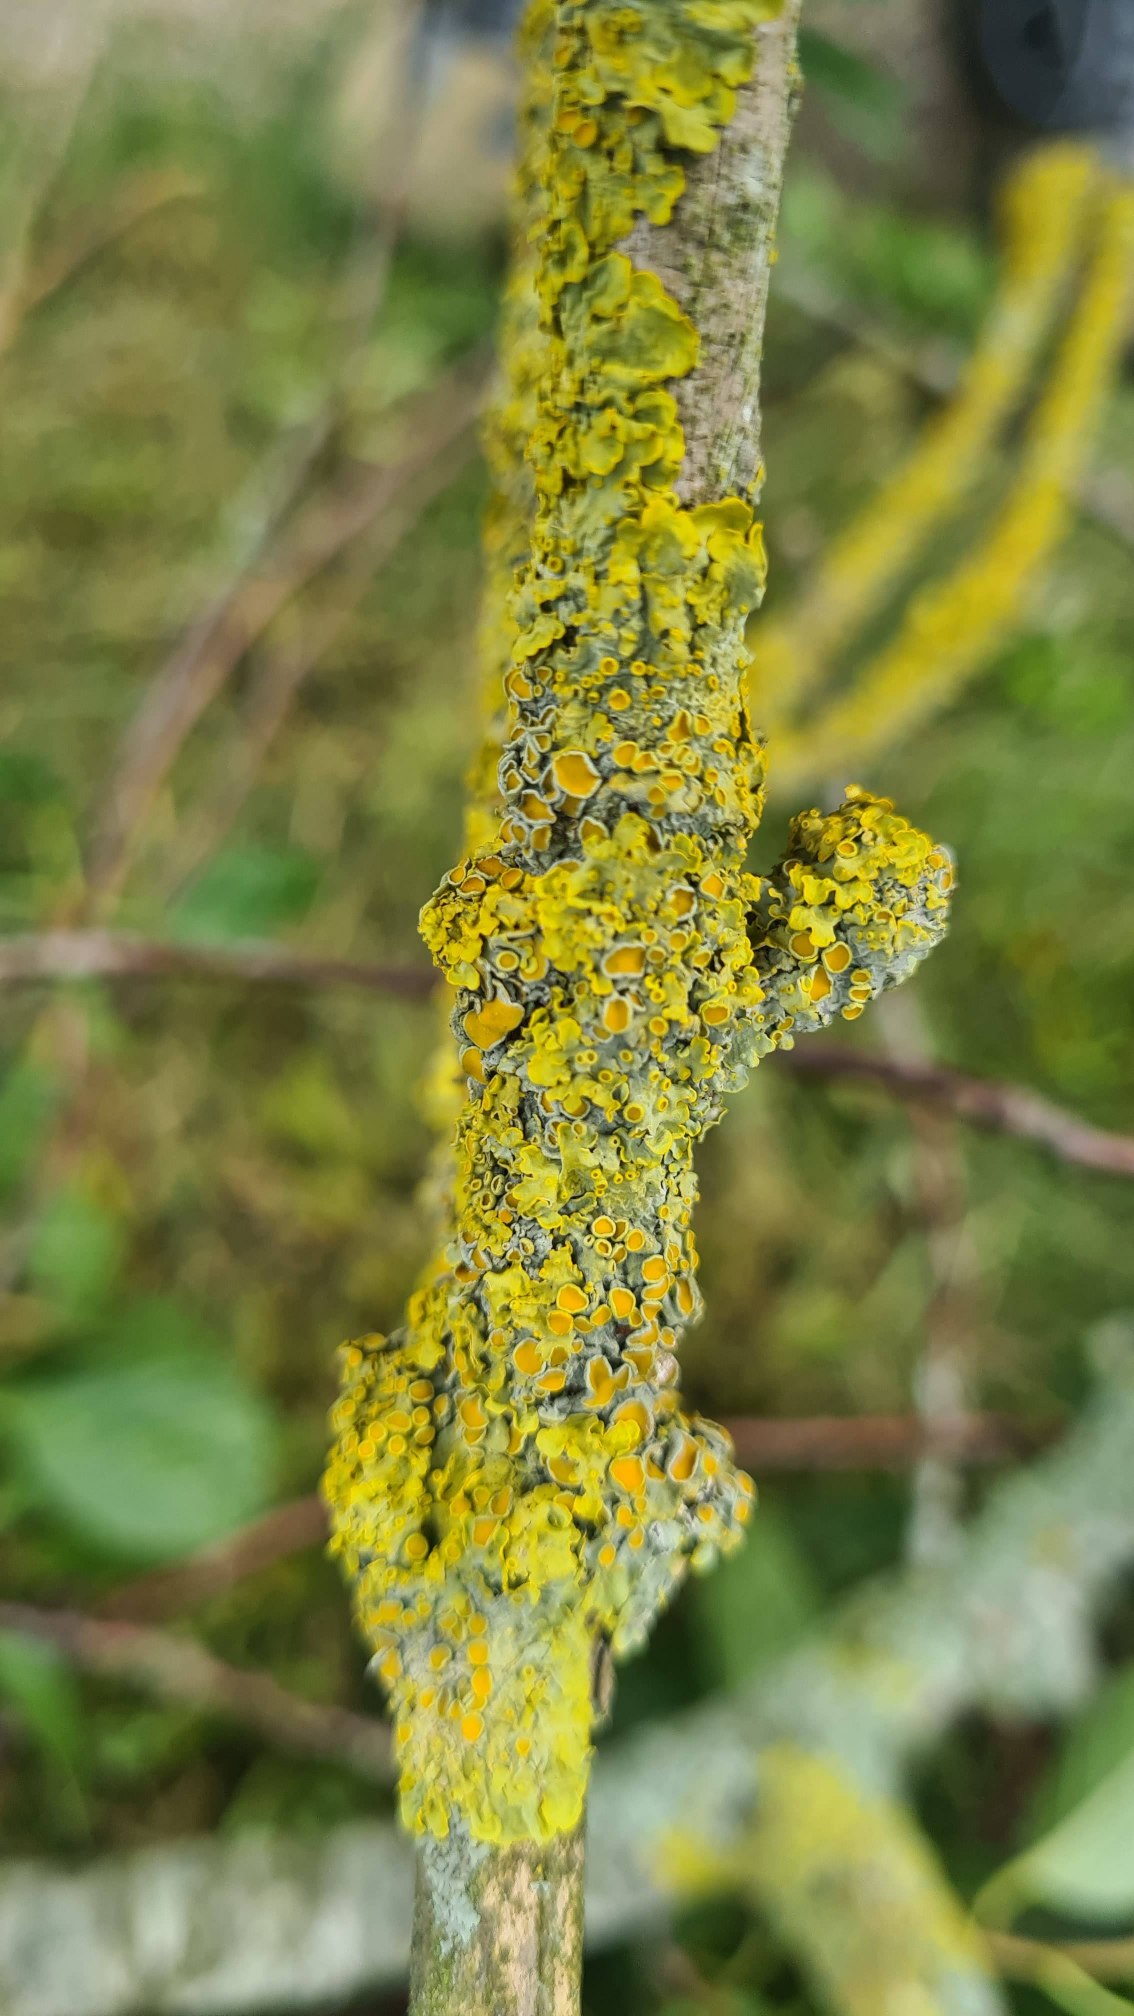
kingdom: Fungi
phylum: Ascomycota
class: Lecanoromycetes
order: Teloschistales
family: Teloschistaceae
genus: Xanthoria
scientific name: Xanthoria parietina
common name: Almindelig væggelav
